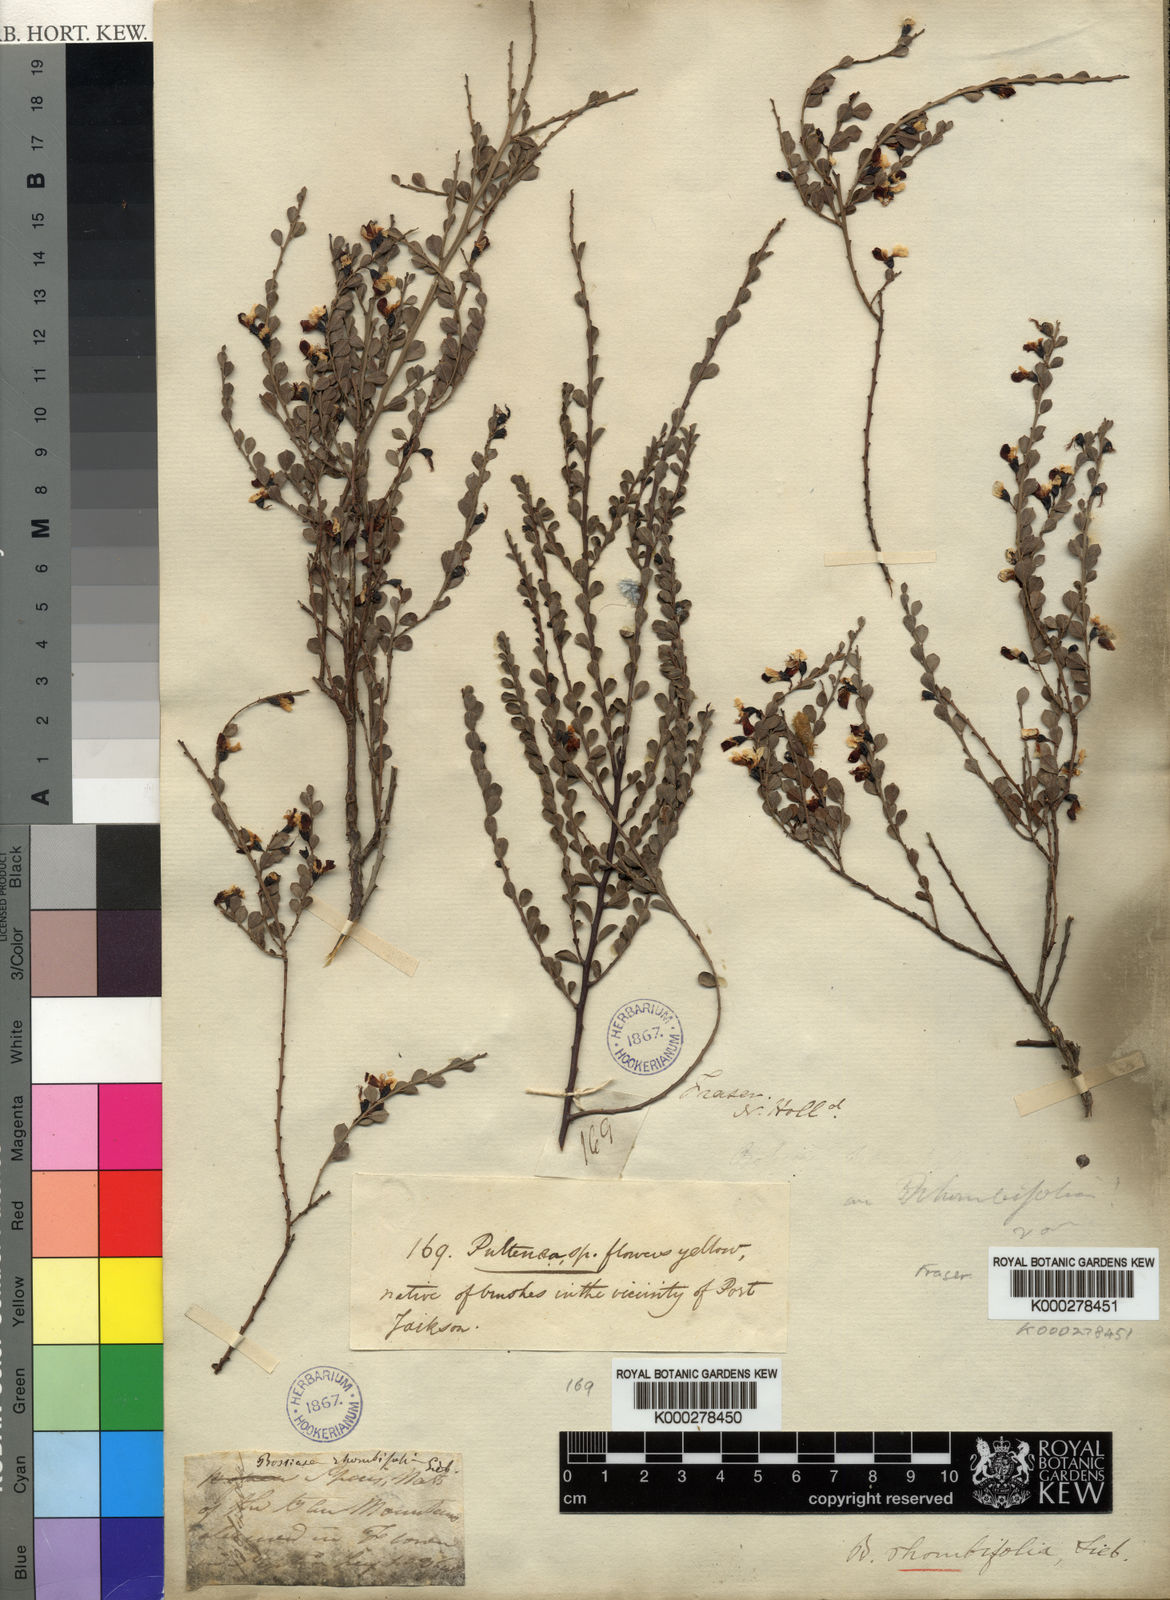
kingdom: Plantae
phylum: Tracheophyta
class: Magnoliopsida
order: Fabales
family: Fabaceae
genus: Bossiaea
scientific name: Bossiaea rhombifolia
